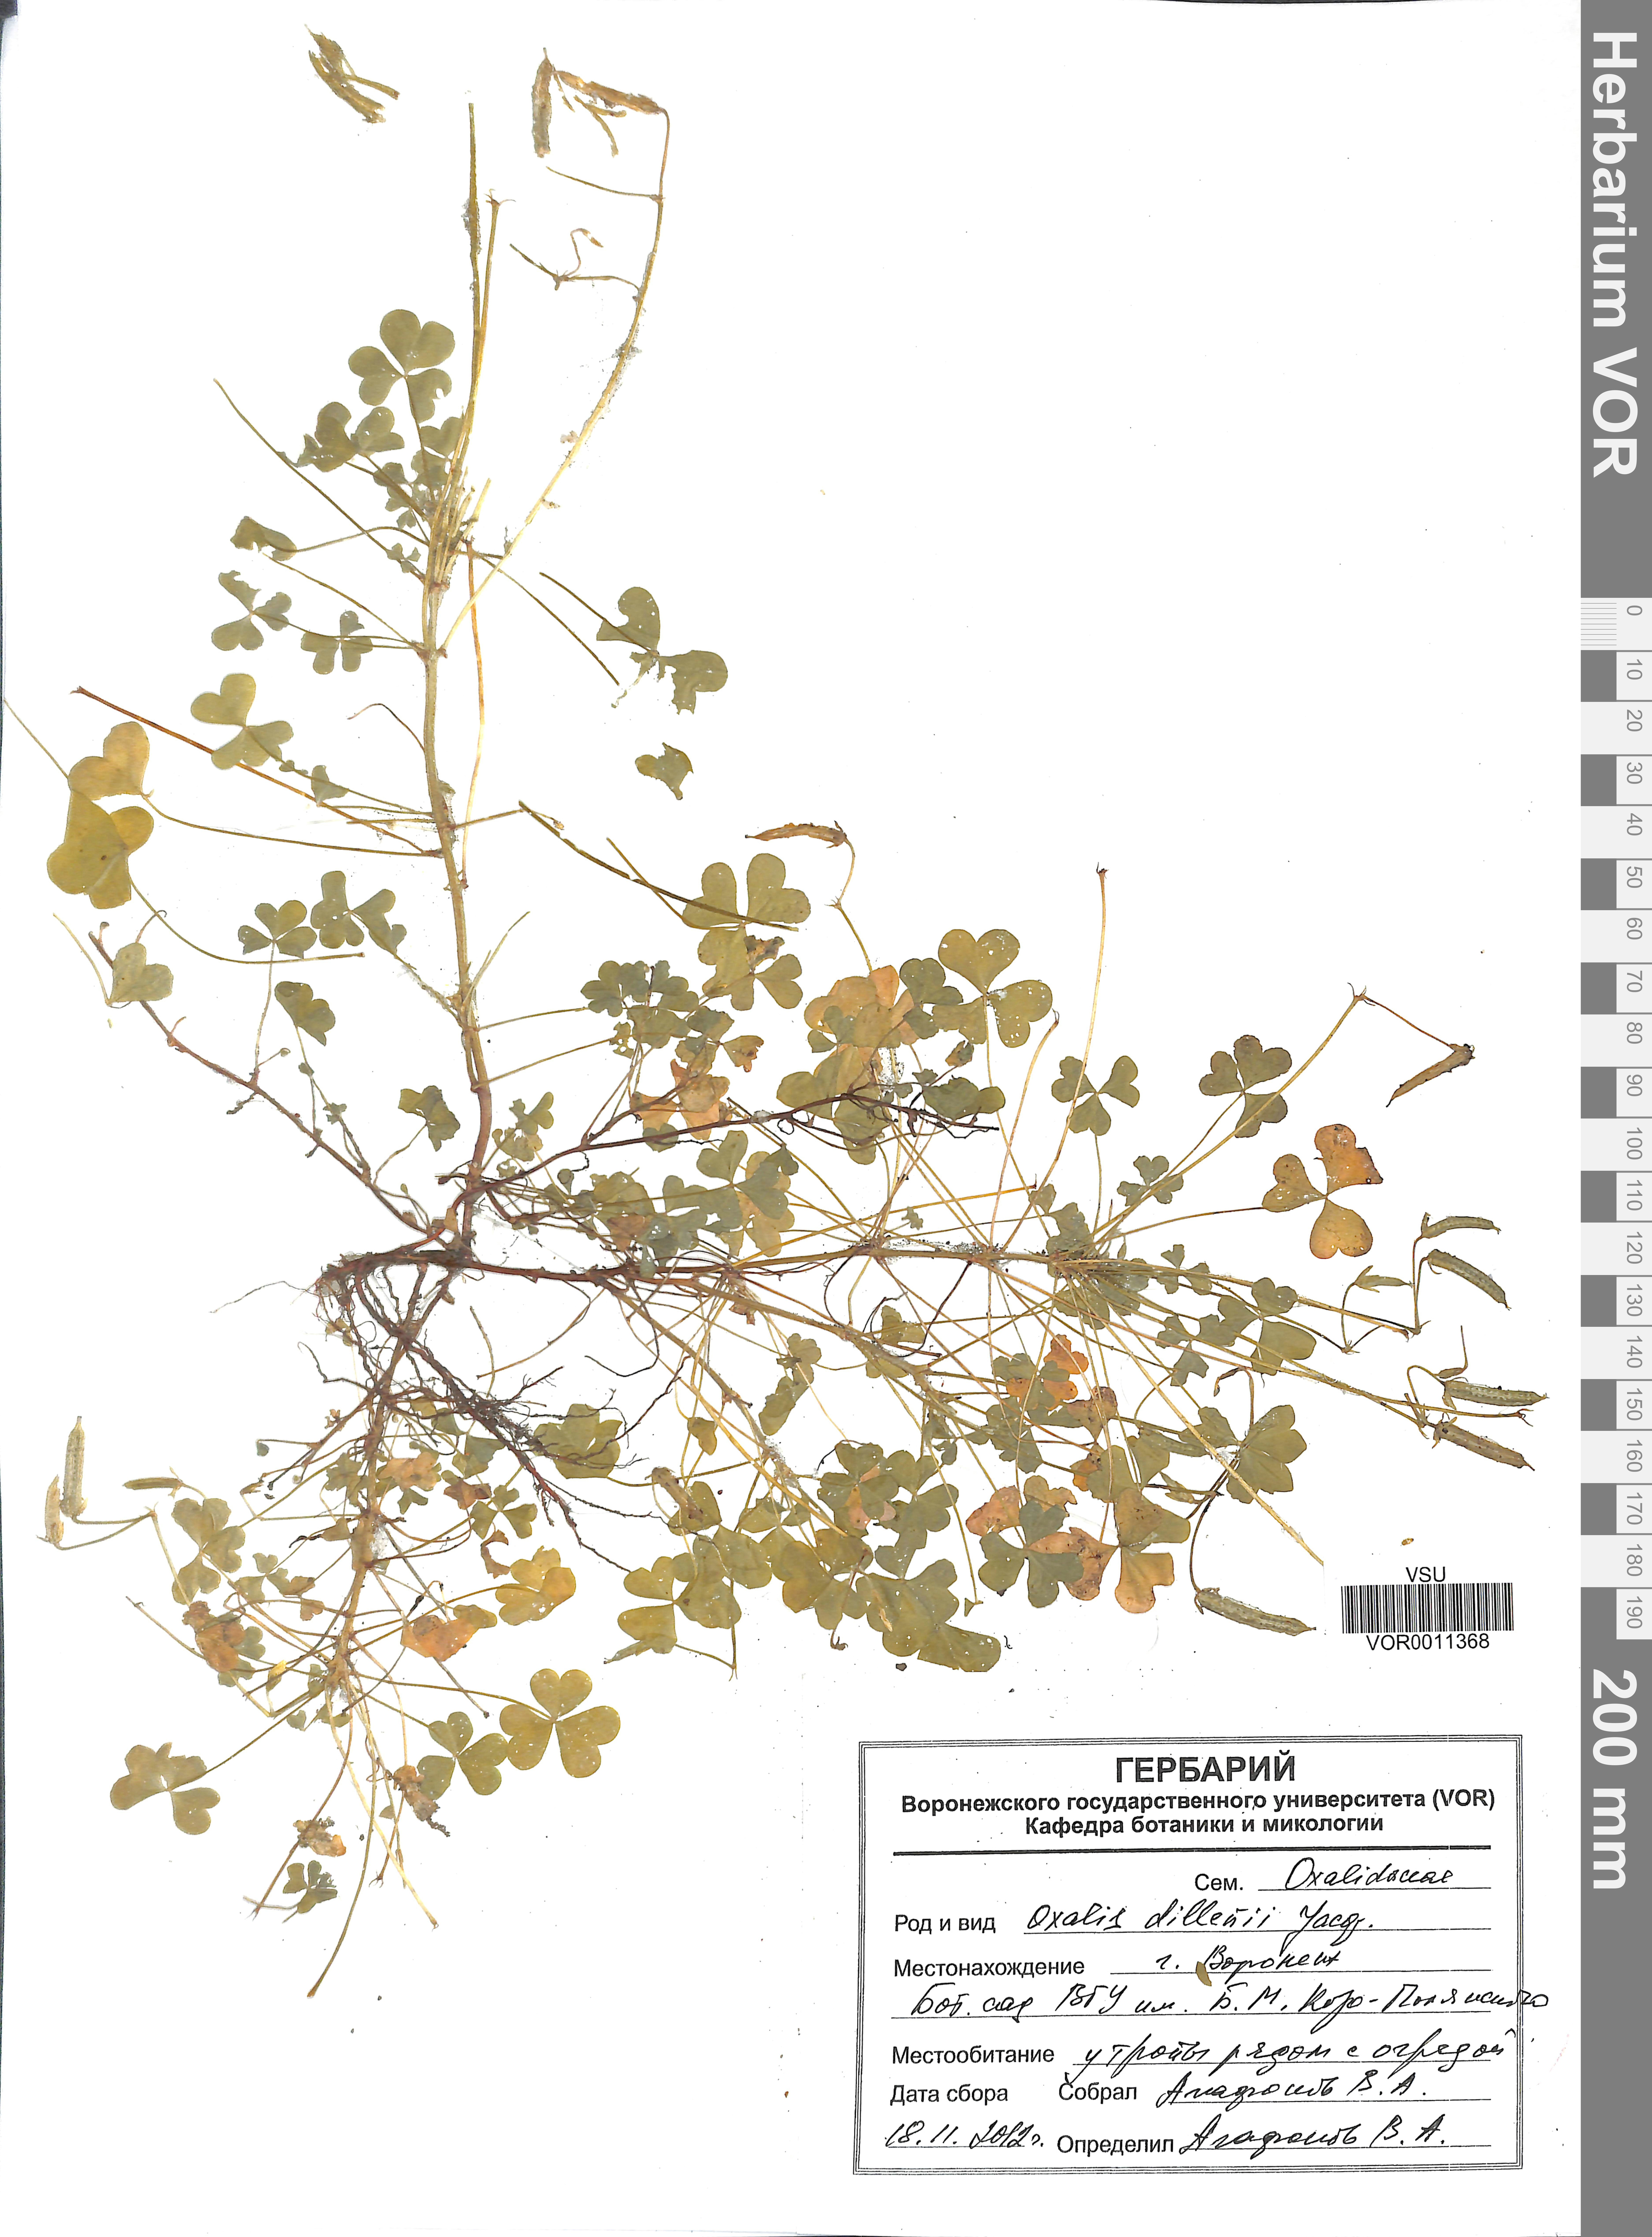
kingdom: Plantae
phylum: Tracheophyta
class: Magnoliopsida
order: Oxalidales
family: Oxalidaceae
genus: Oxalis
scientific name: Oxalis dillenii
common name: Sussex yellow-sorrel
